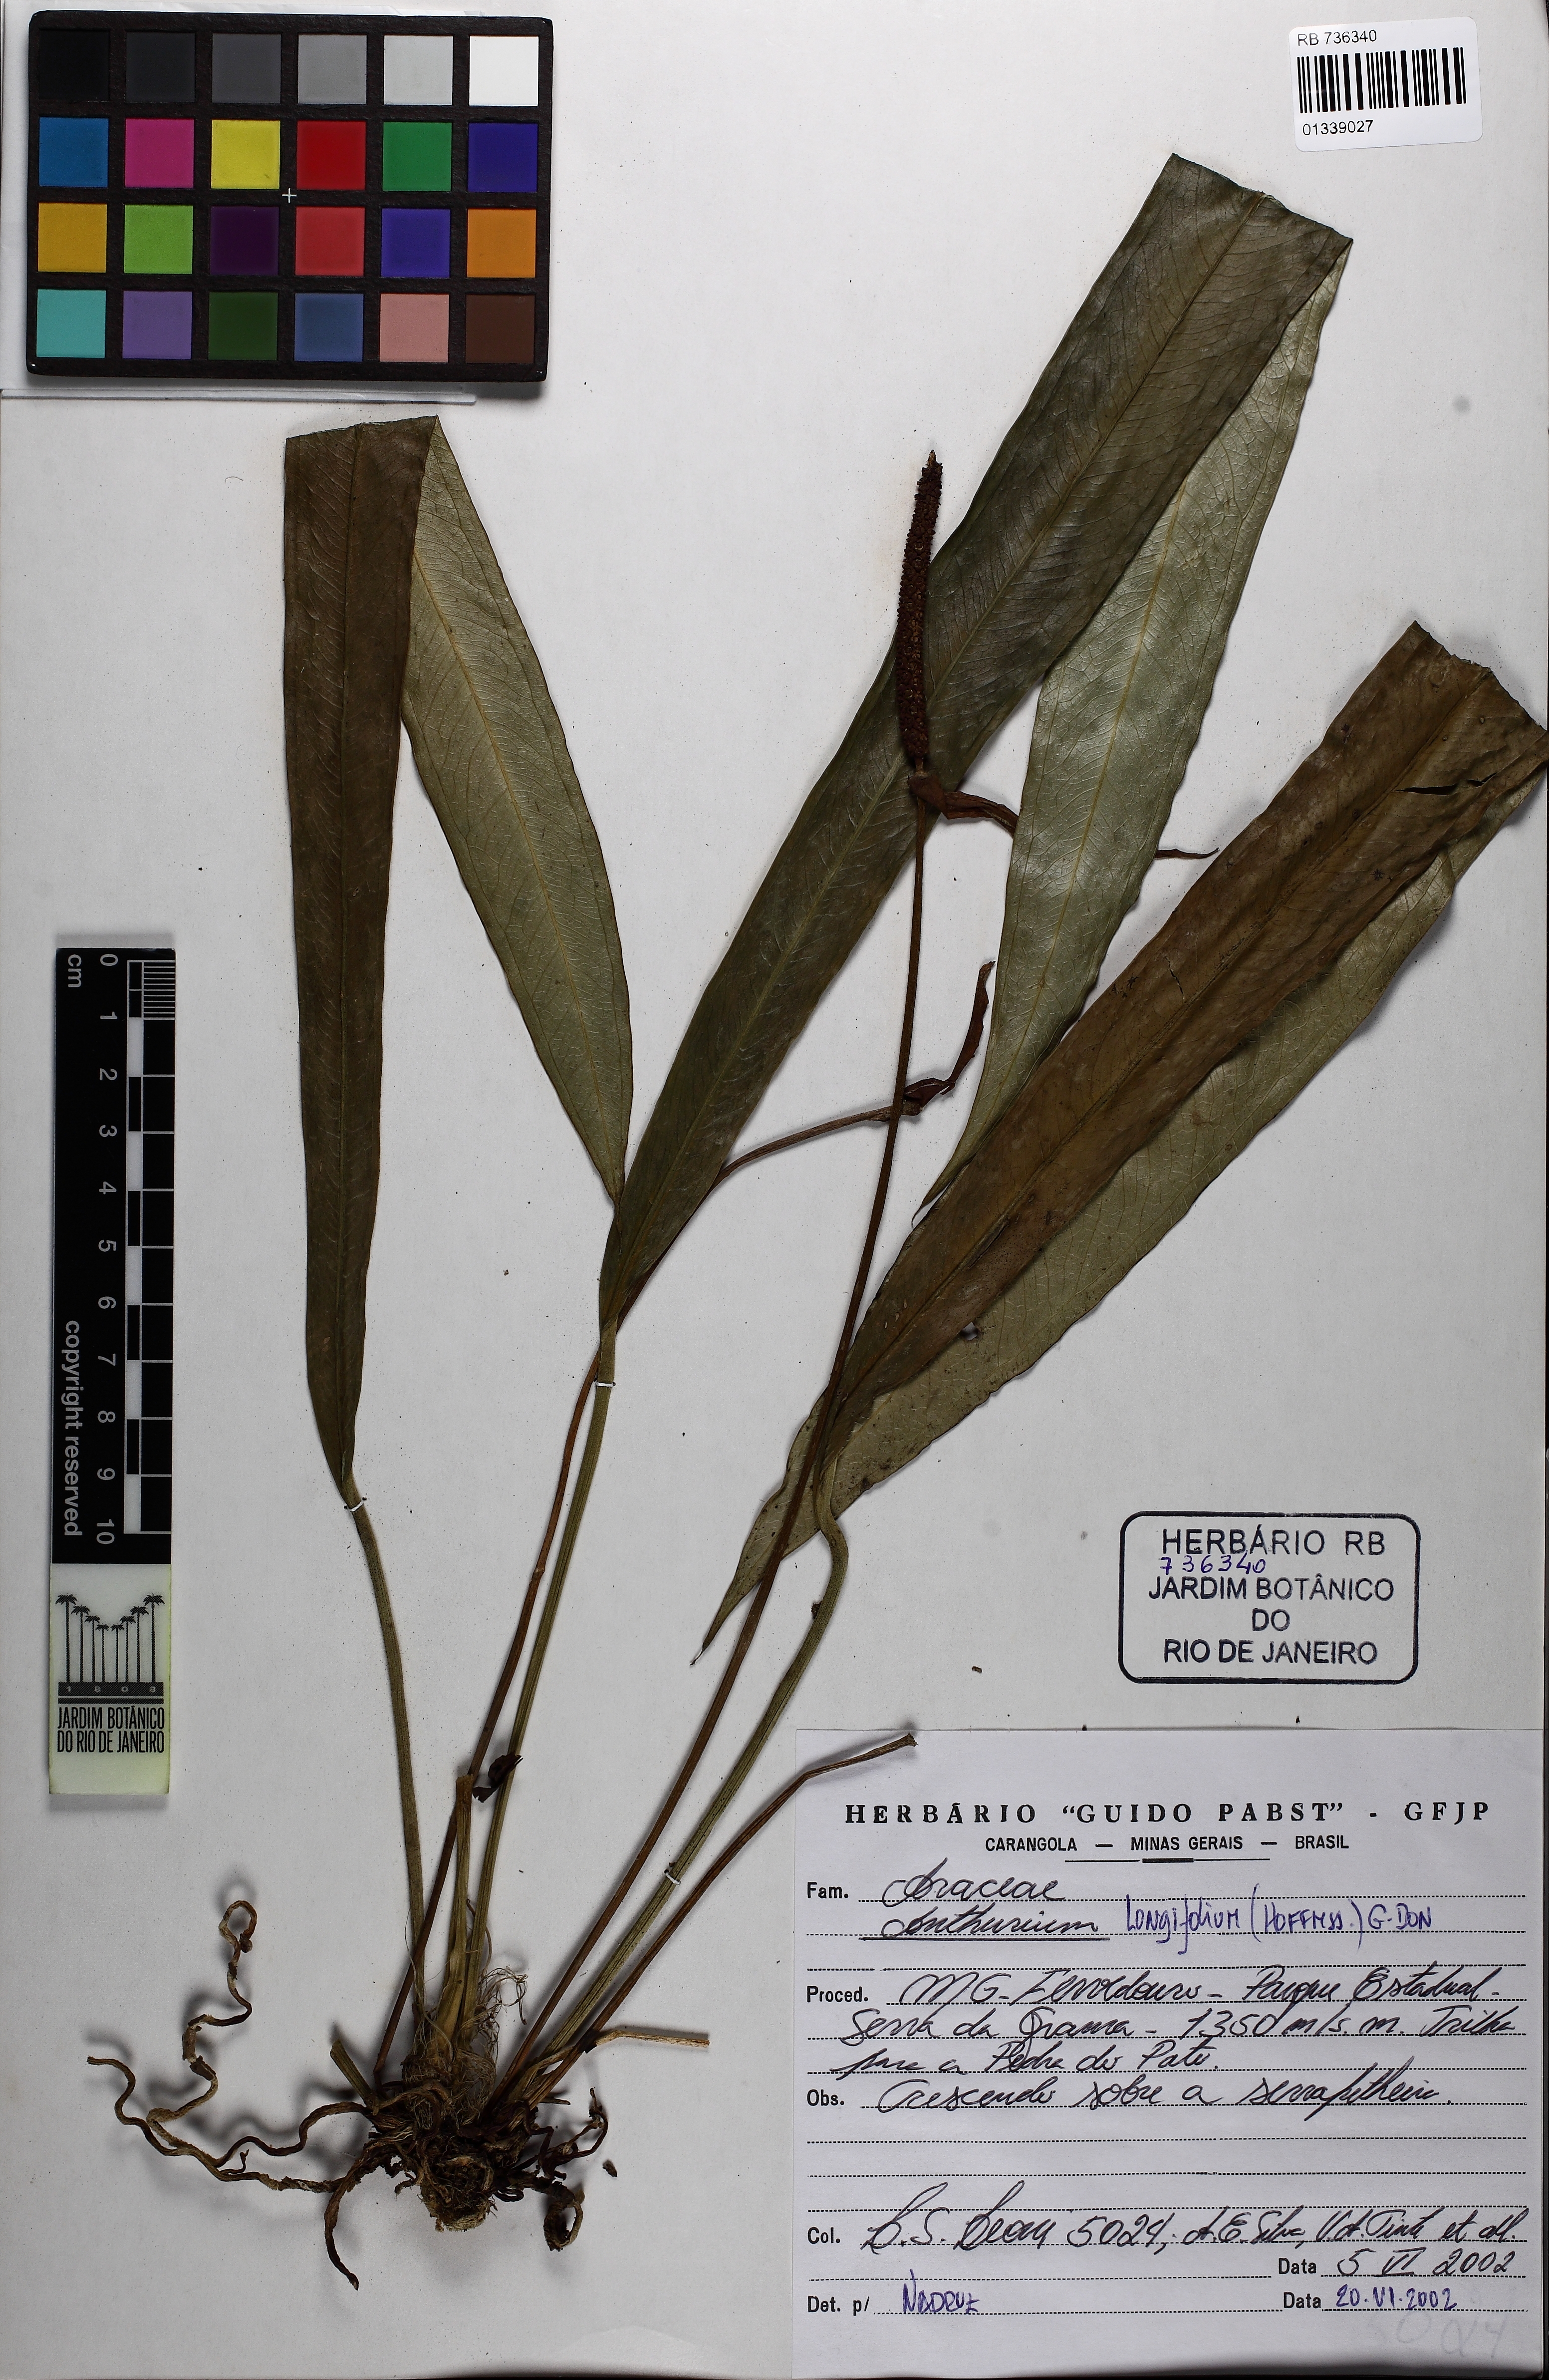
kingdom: Plantae
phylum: Tracheophyta
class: Liliopsida
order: Alismatales
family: Araceae
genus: Anthurium
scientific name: Anthurium longifolium
